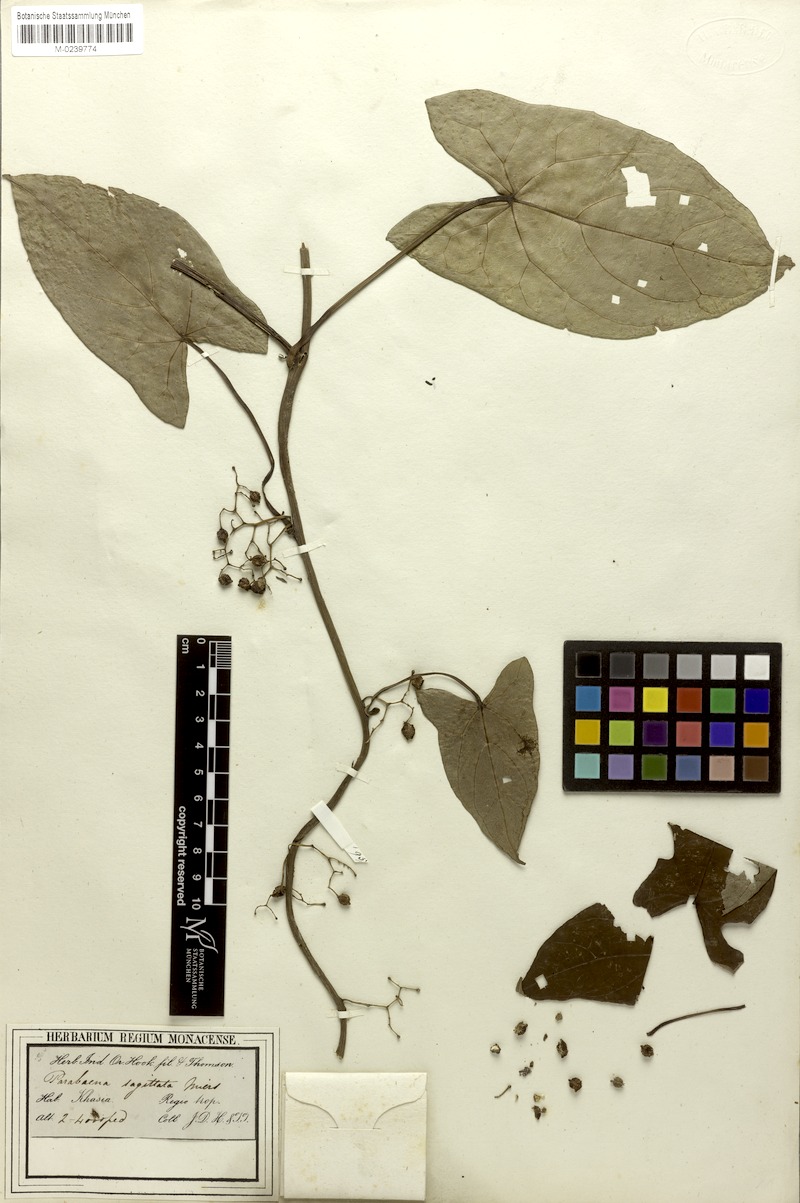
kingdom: Plantae
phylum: Tracheophyta
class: Magnoliopsida
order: Ranunculales
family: Menispermaceae
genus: Parabaena
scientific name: Parabaena sagittata
